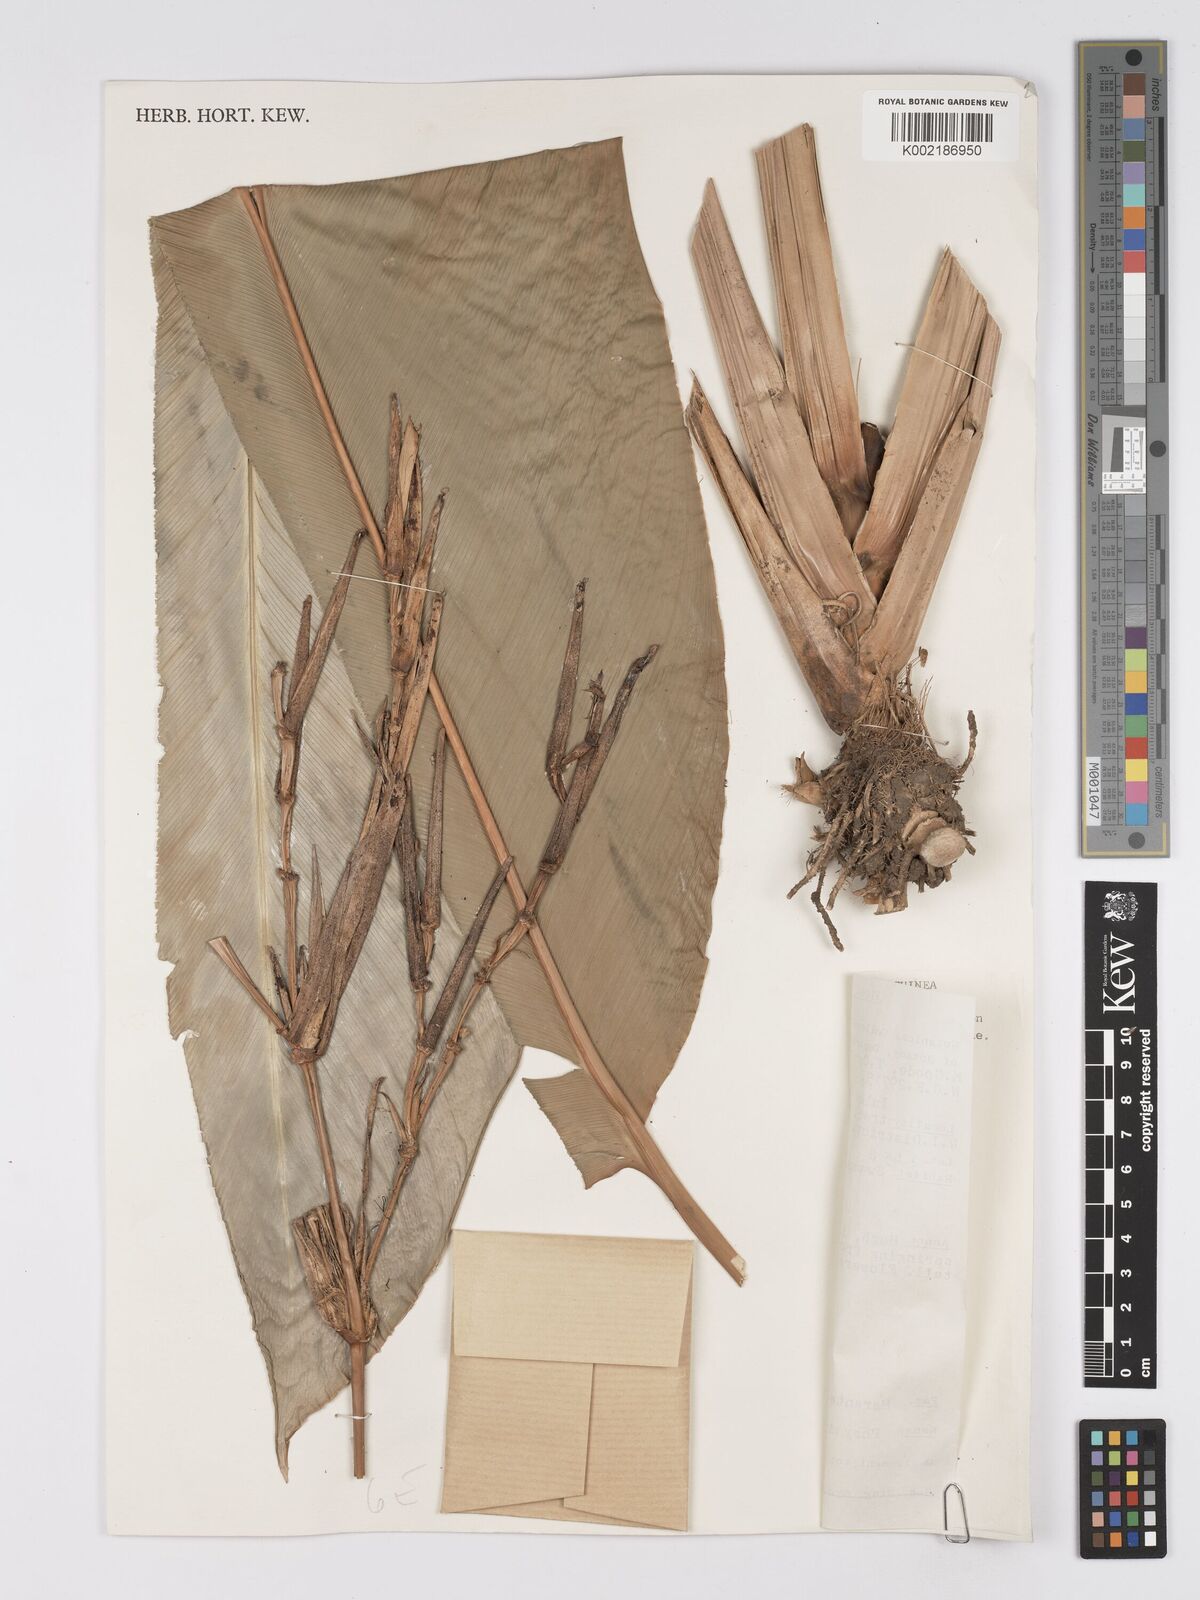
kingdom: Plantae
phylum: Tracheophyta
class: Liliopsida
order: Zingiberales
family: Marantaceae
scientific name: Marantaceae
